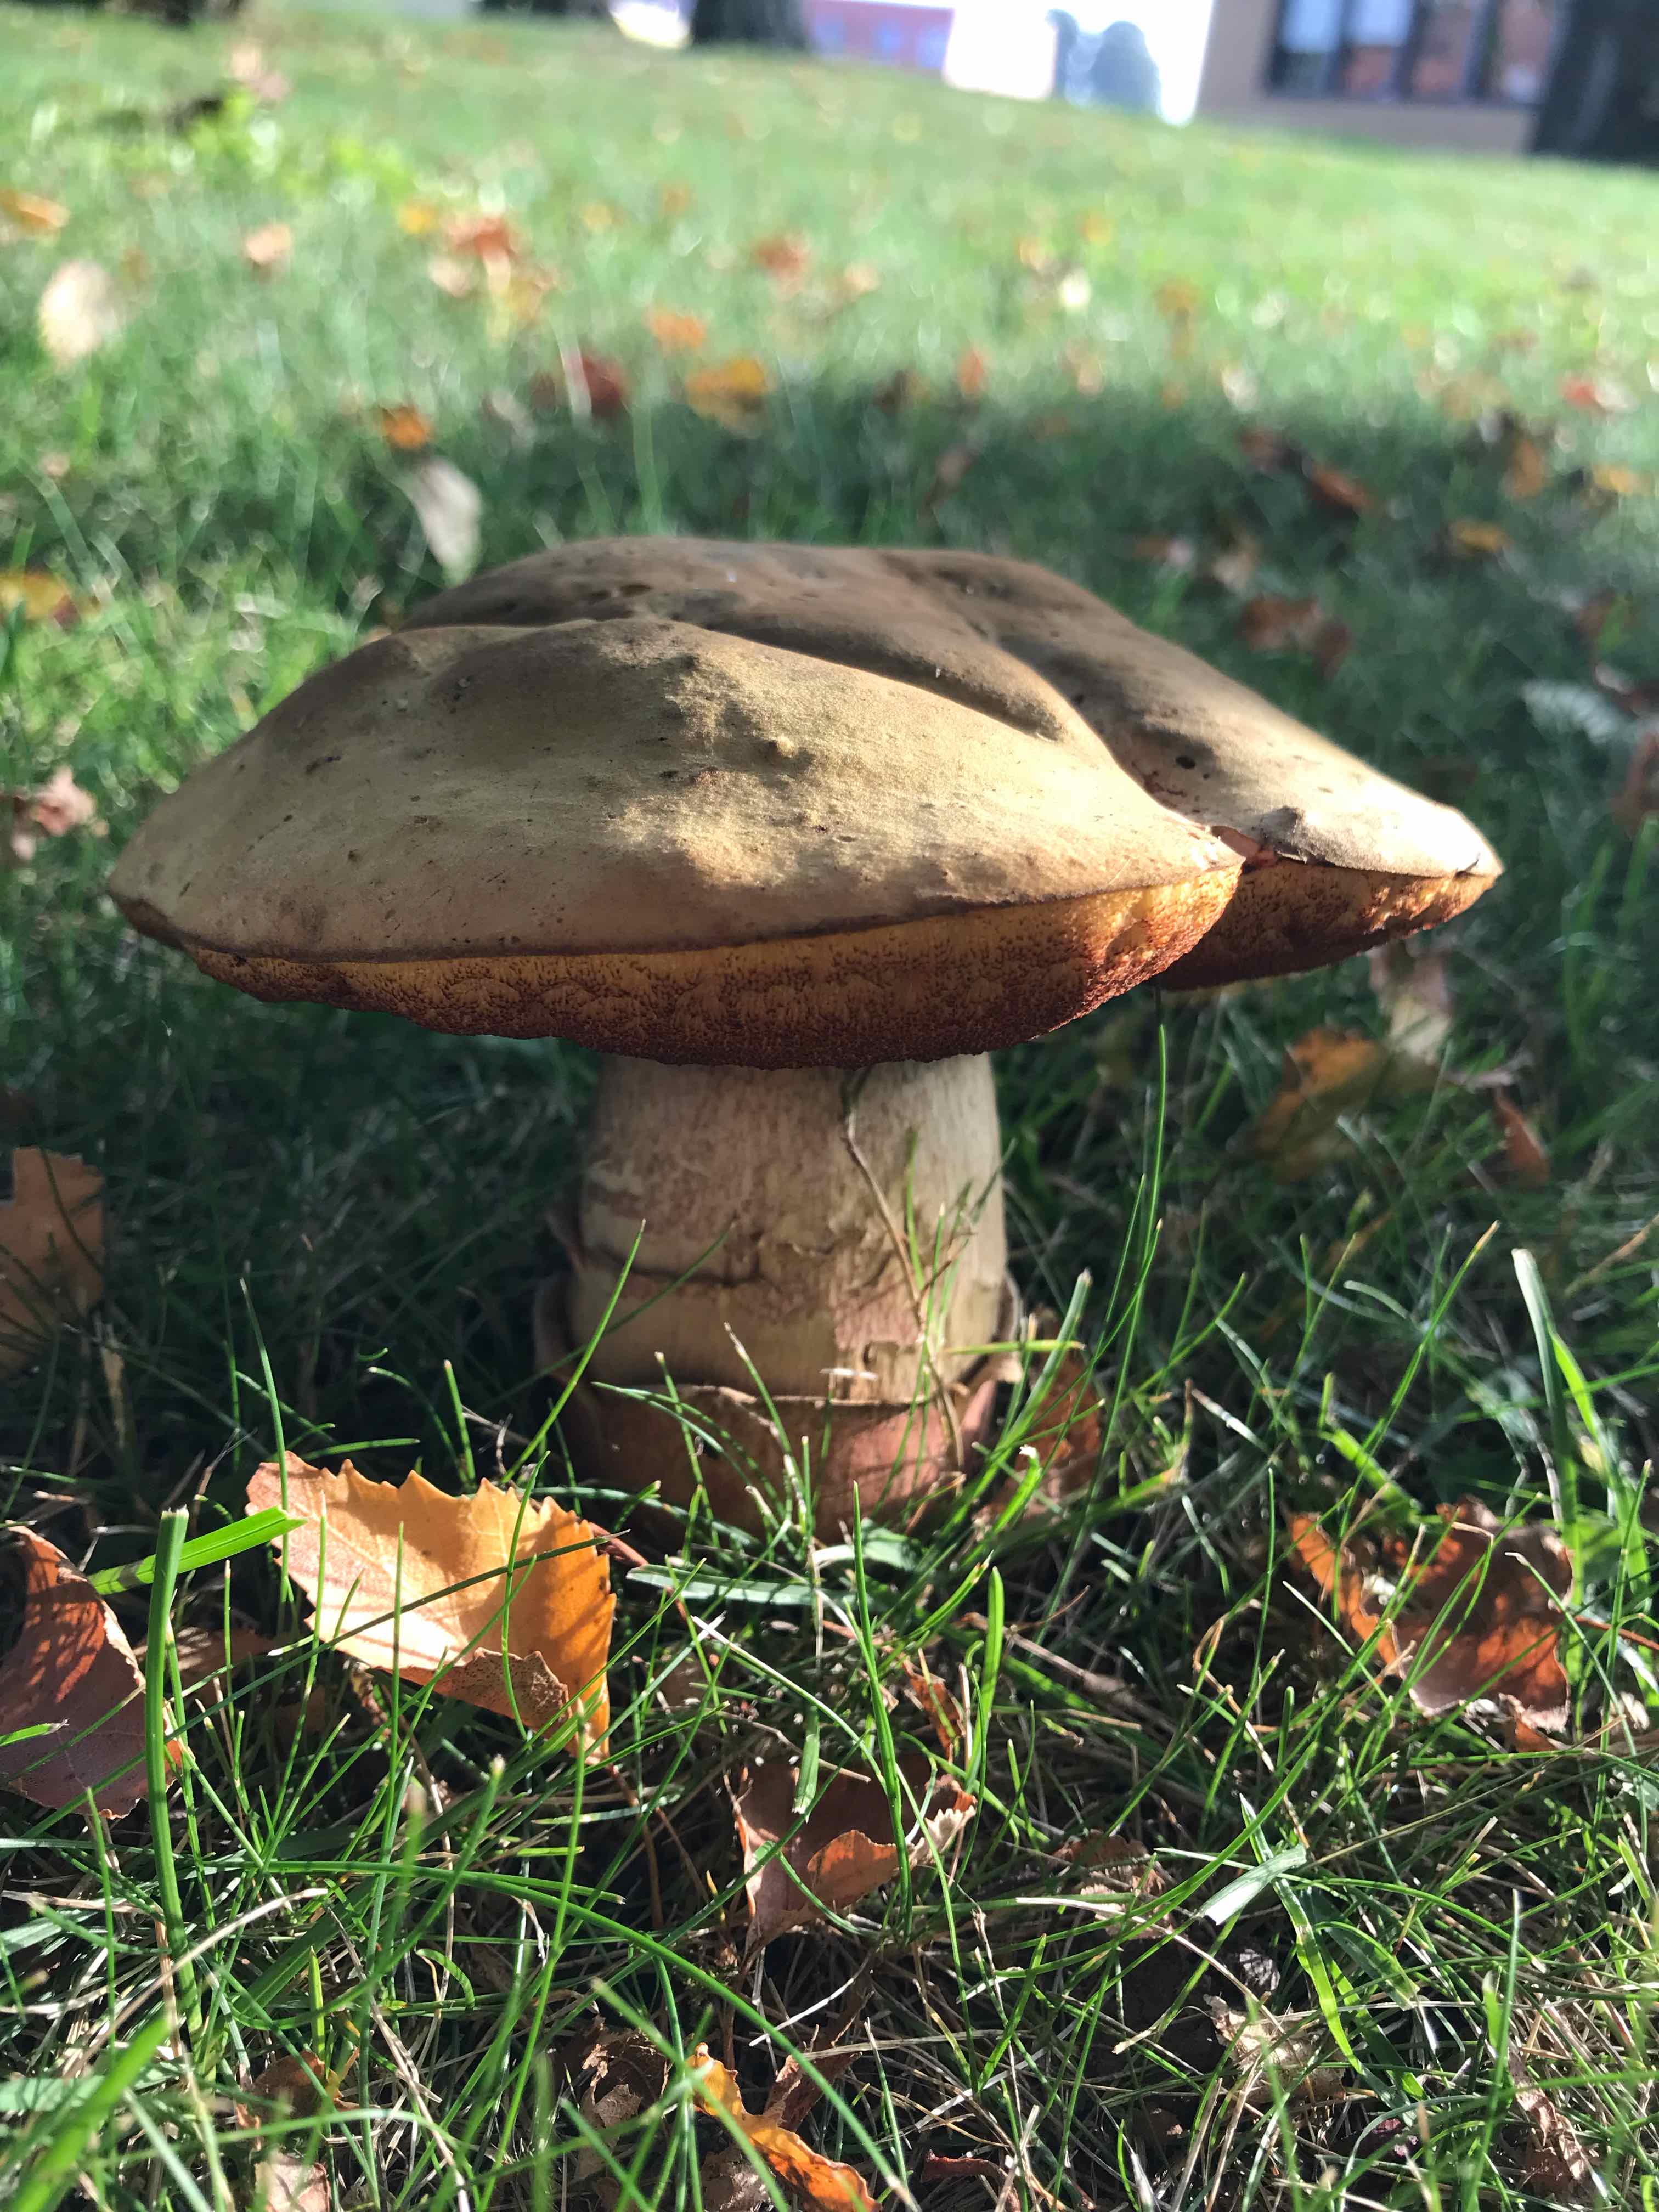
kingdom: Fungi
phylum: Basidiomycota
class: Agaricomycetes
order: Boletales
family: Boletaceae
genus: Suillellus
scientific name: Suillellus luridus
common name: netstokket indigorørhat
